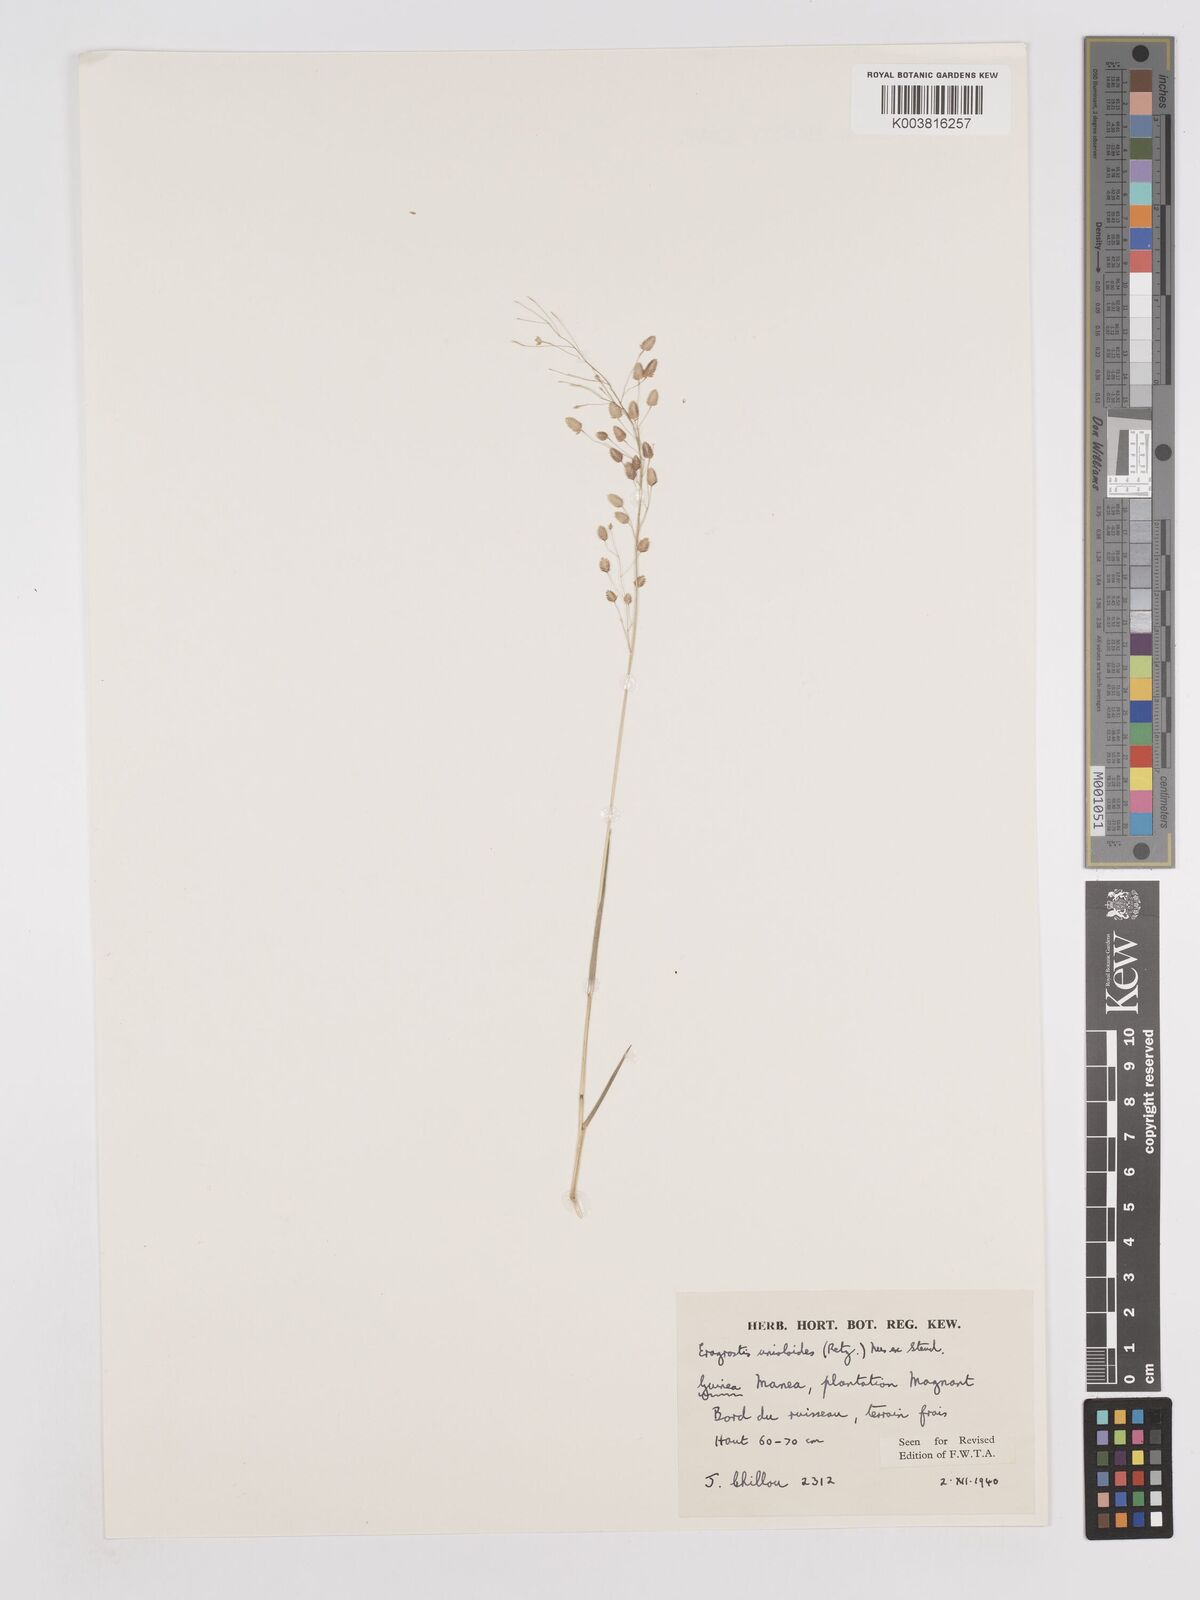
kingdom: Plantae
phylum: Tracheophyta
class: Liliopsida
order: Poales
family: Poaceae
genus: Eragrostis
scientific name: Eragrostis unioloides
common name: Chinese lovegrass
